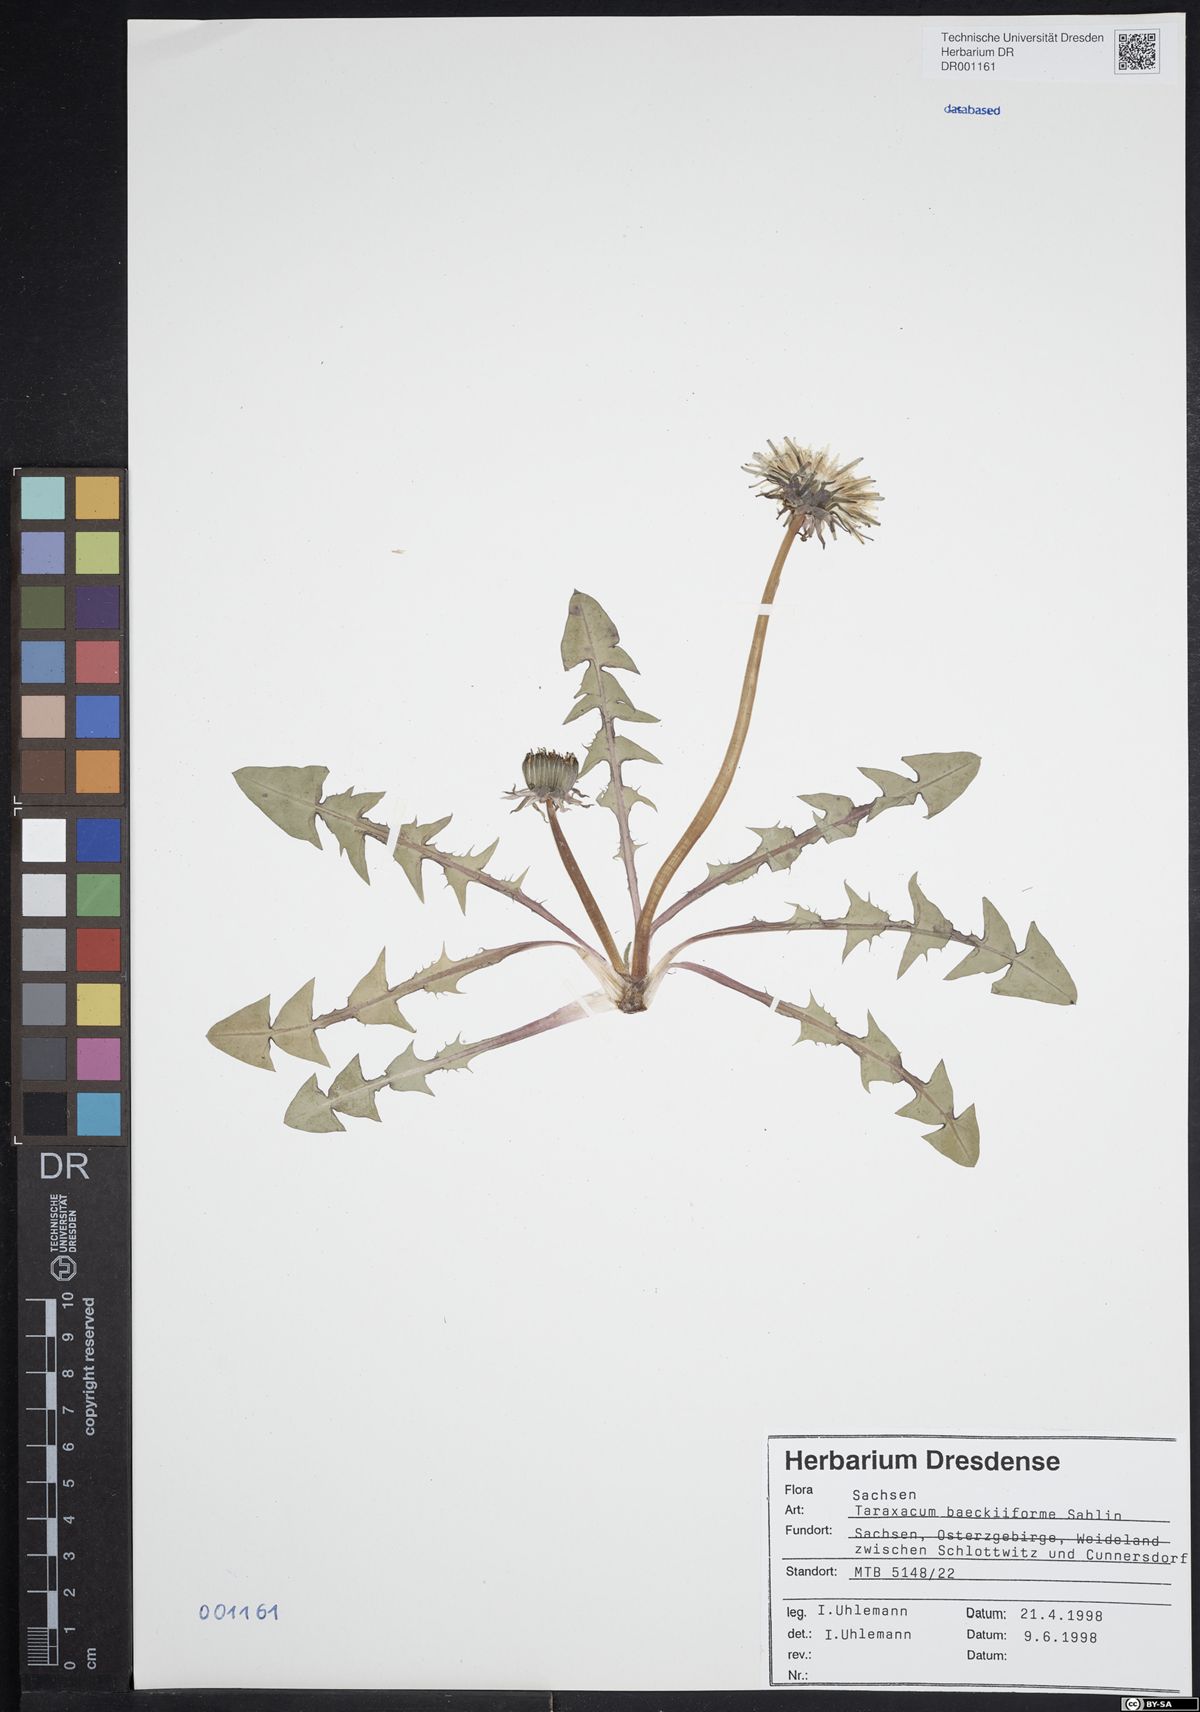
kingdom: Plantae
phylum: Tracheophyta
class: Magnoliopsida
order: Asterales
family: Asteraceae
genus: Taraxacum
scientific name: Taraxacum baeckiiforme
